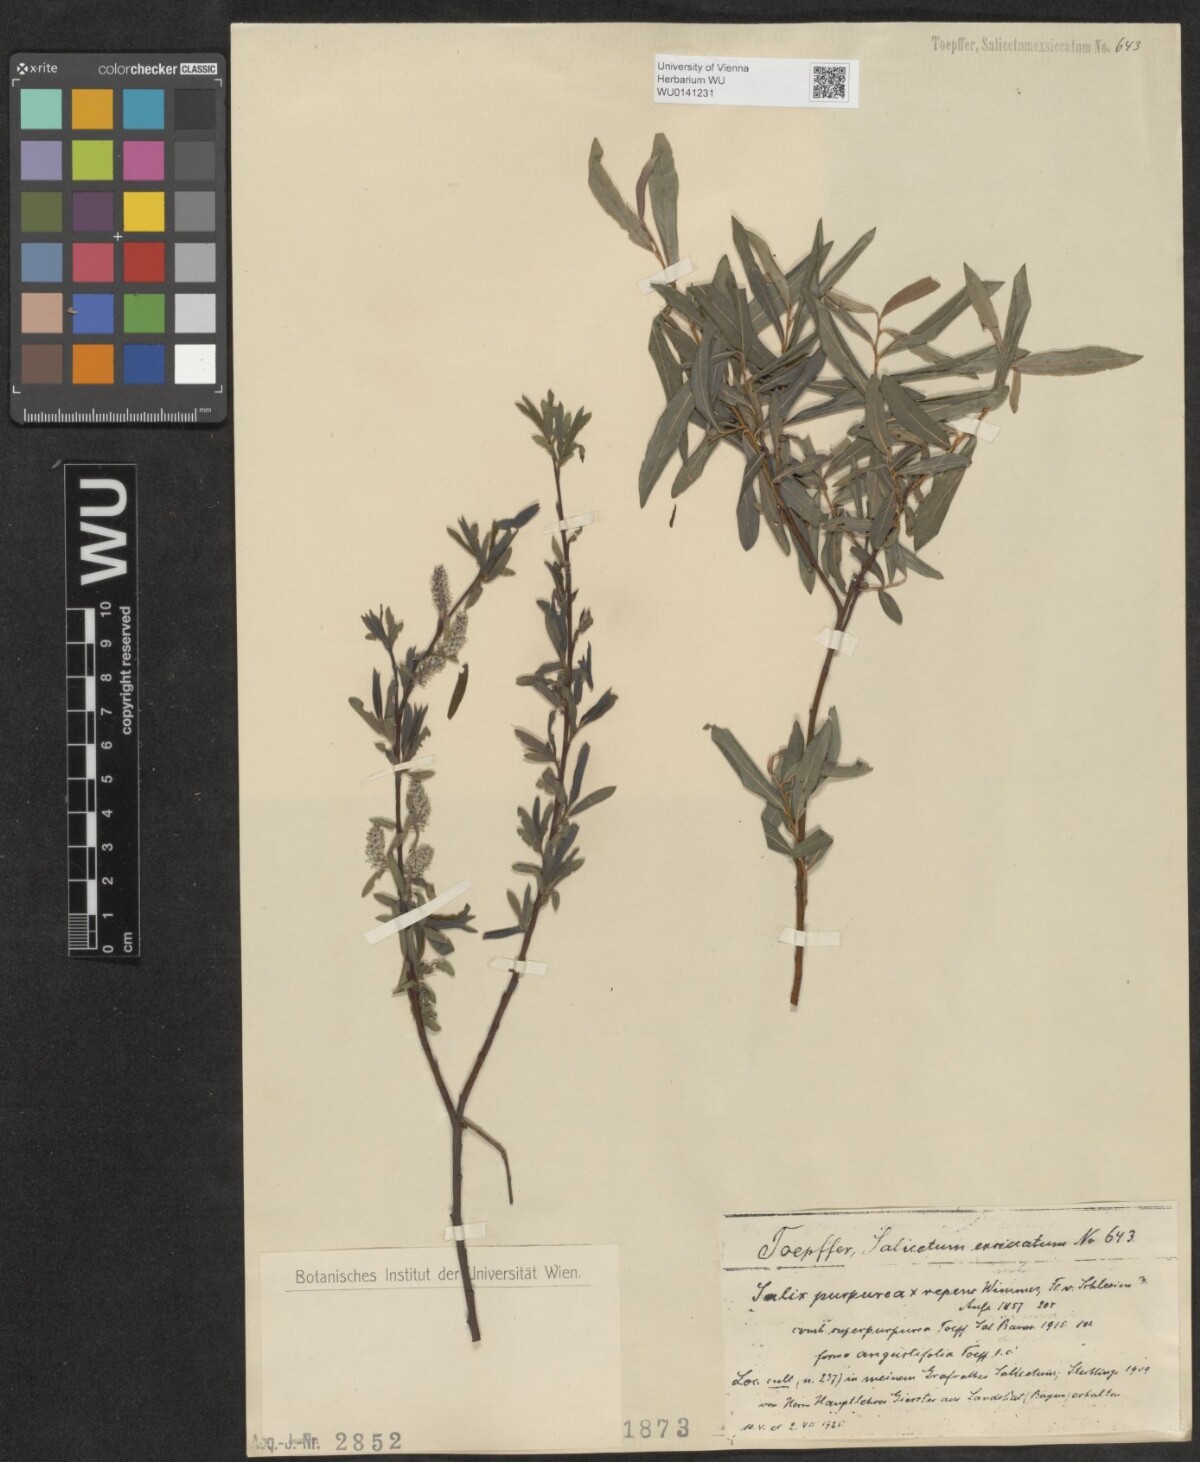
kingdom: Plantae
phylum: Tracheophyta
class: Magnoliopsida
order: Malpighiales
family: Salicaceae
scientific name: Salicaceae
